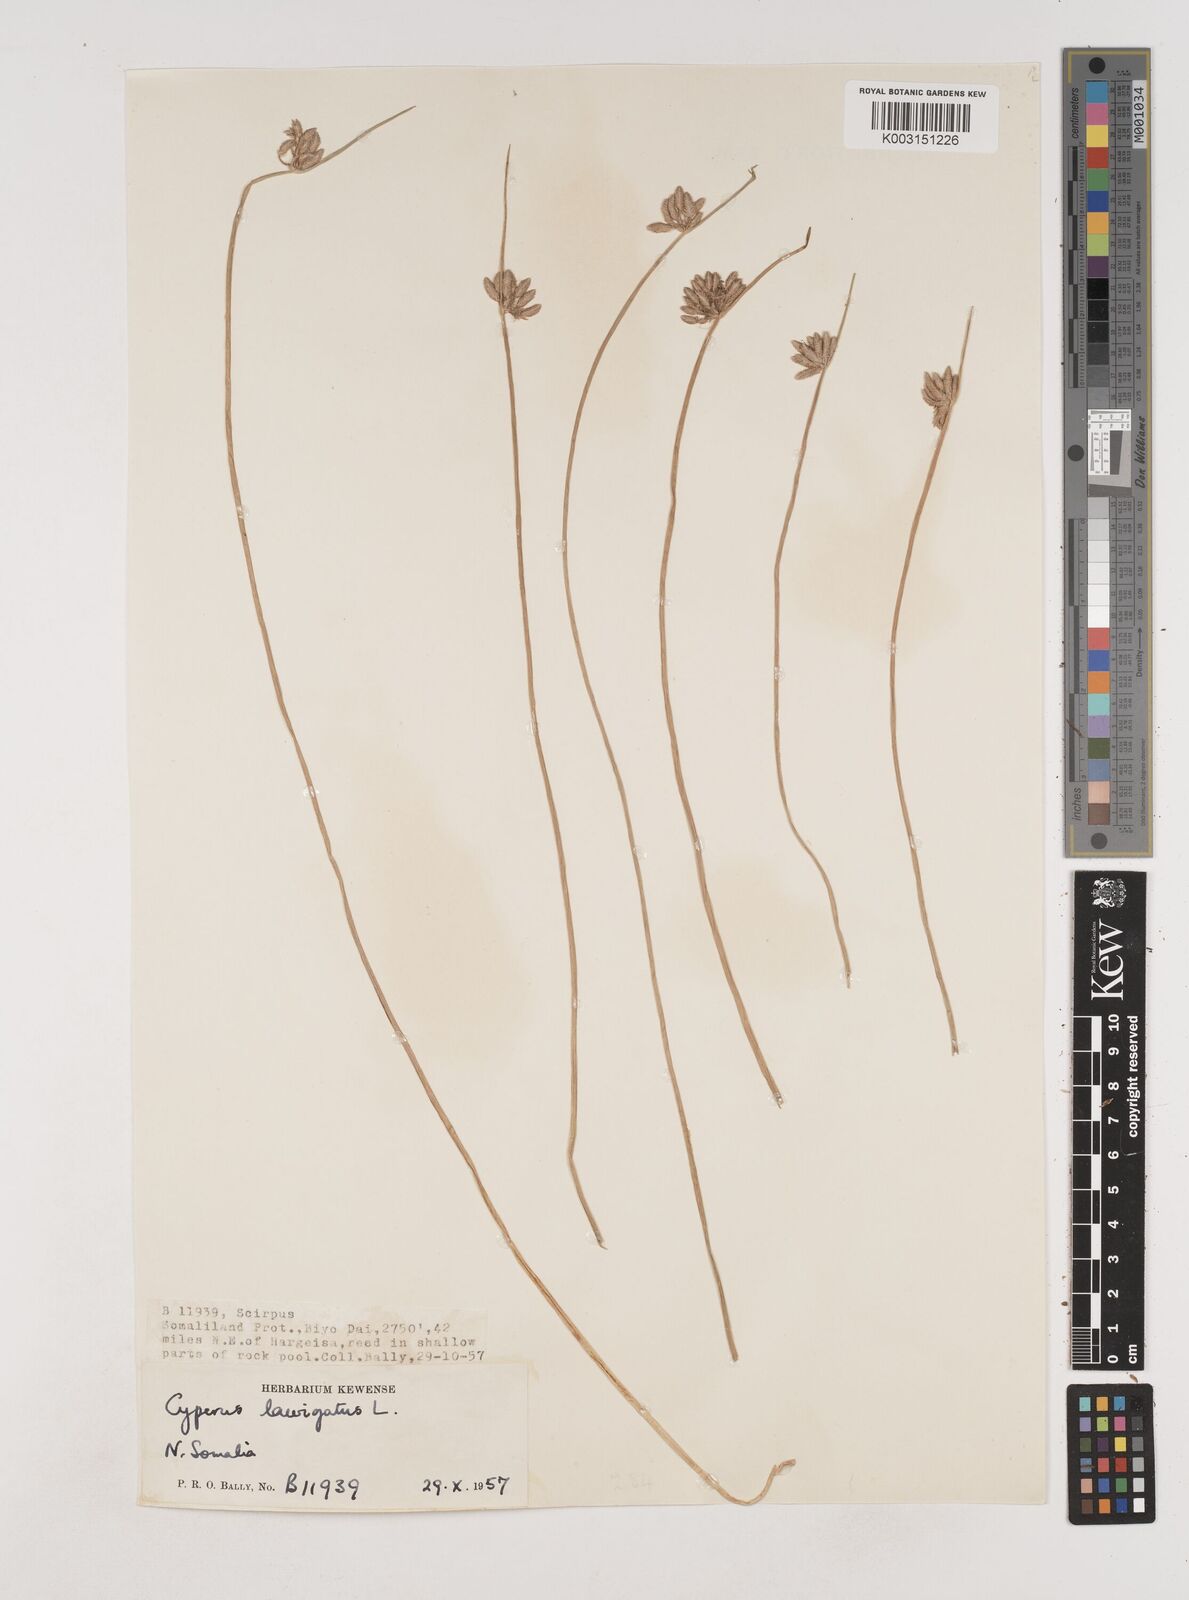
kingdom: Plantae
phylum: Tracheophyta
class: Liliopsida
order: Poales
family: Cyperaceae
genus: Cyperus
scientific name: Cyperus laevigatus
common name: Smooth flat sedge
